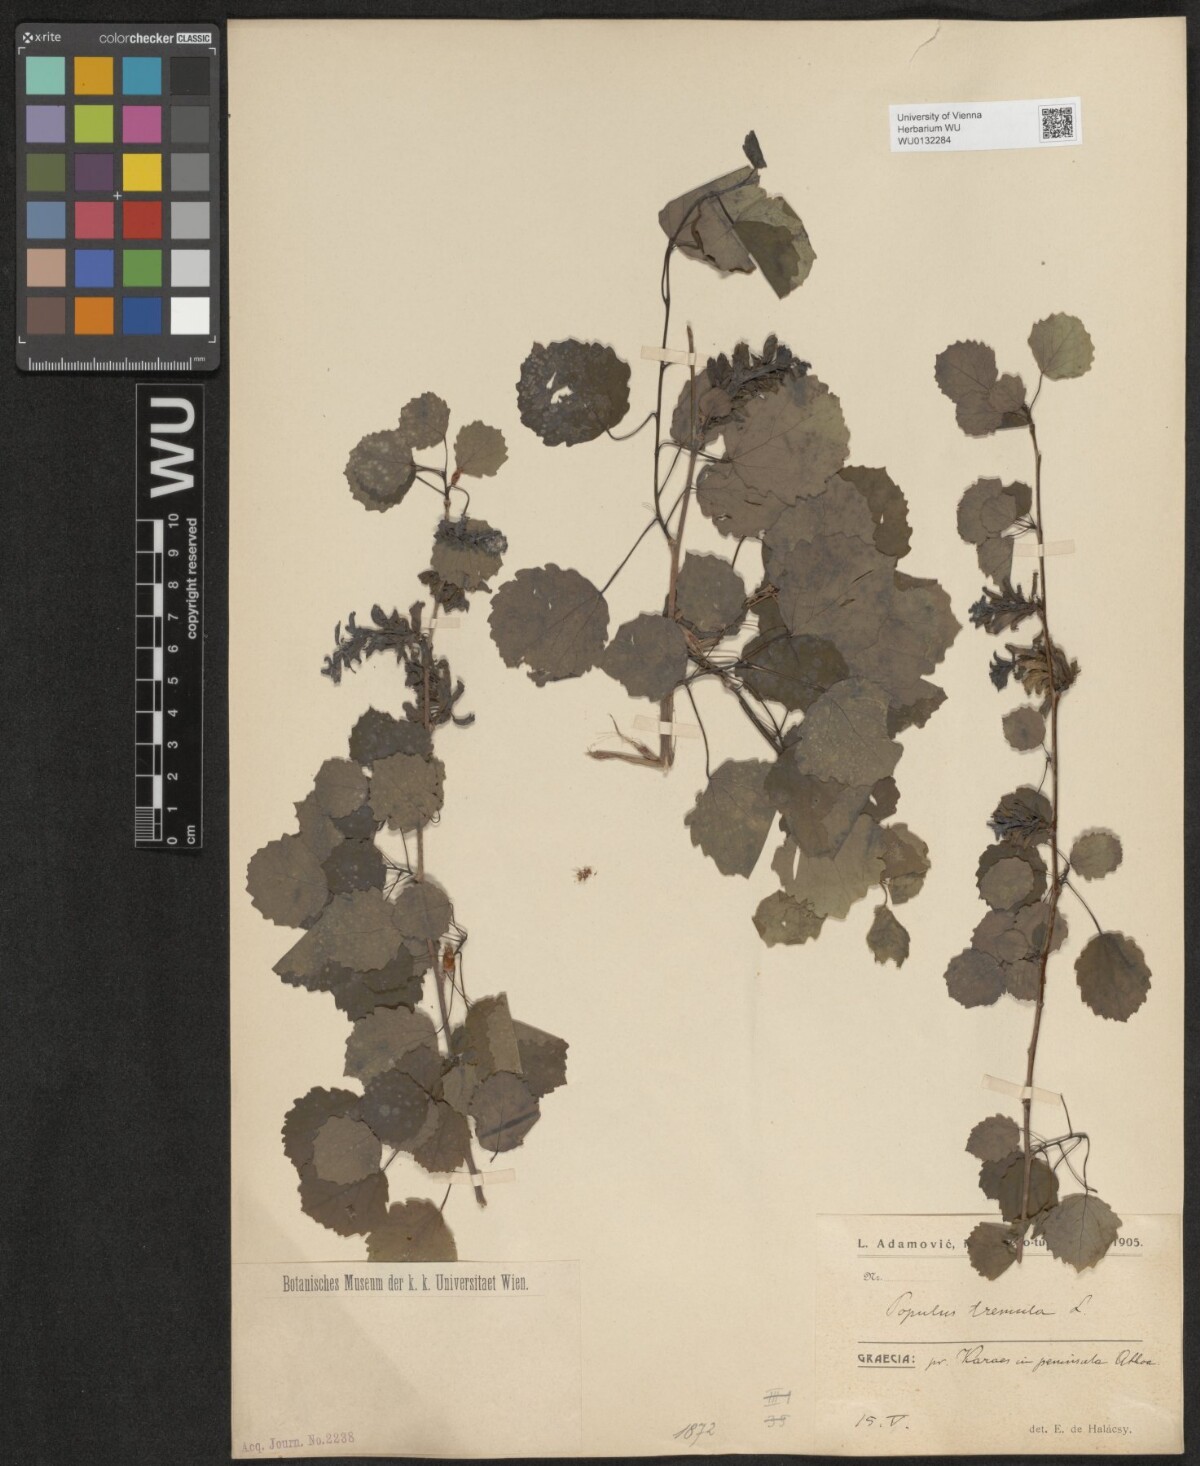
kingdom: Plantae
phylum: Tracheophyta
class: Magnoliopsida
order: Malpighiales
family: Salicaceae
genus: Populus
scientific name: Populus tremula
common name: European aspen
